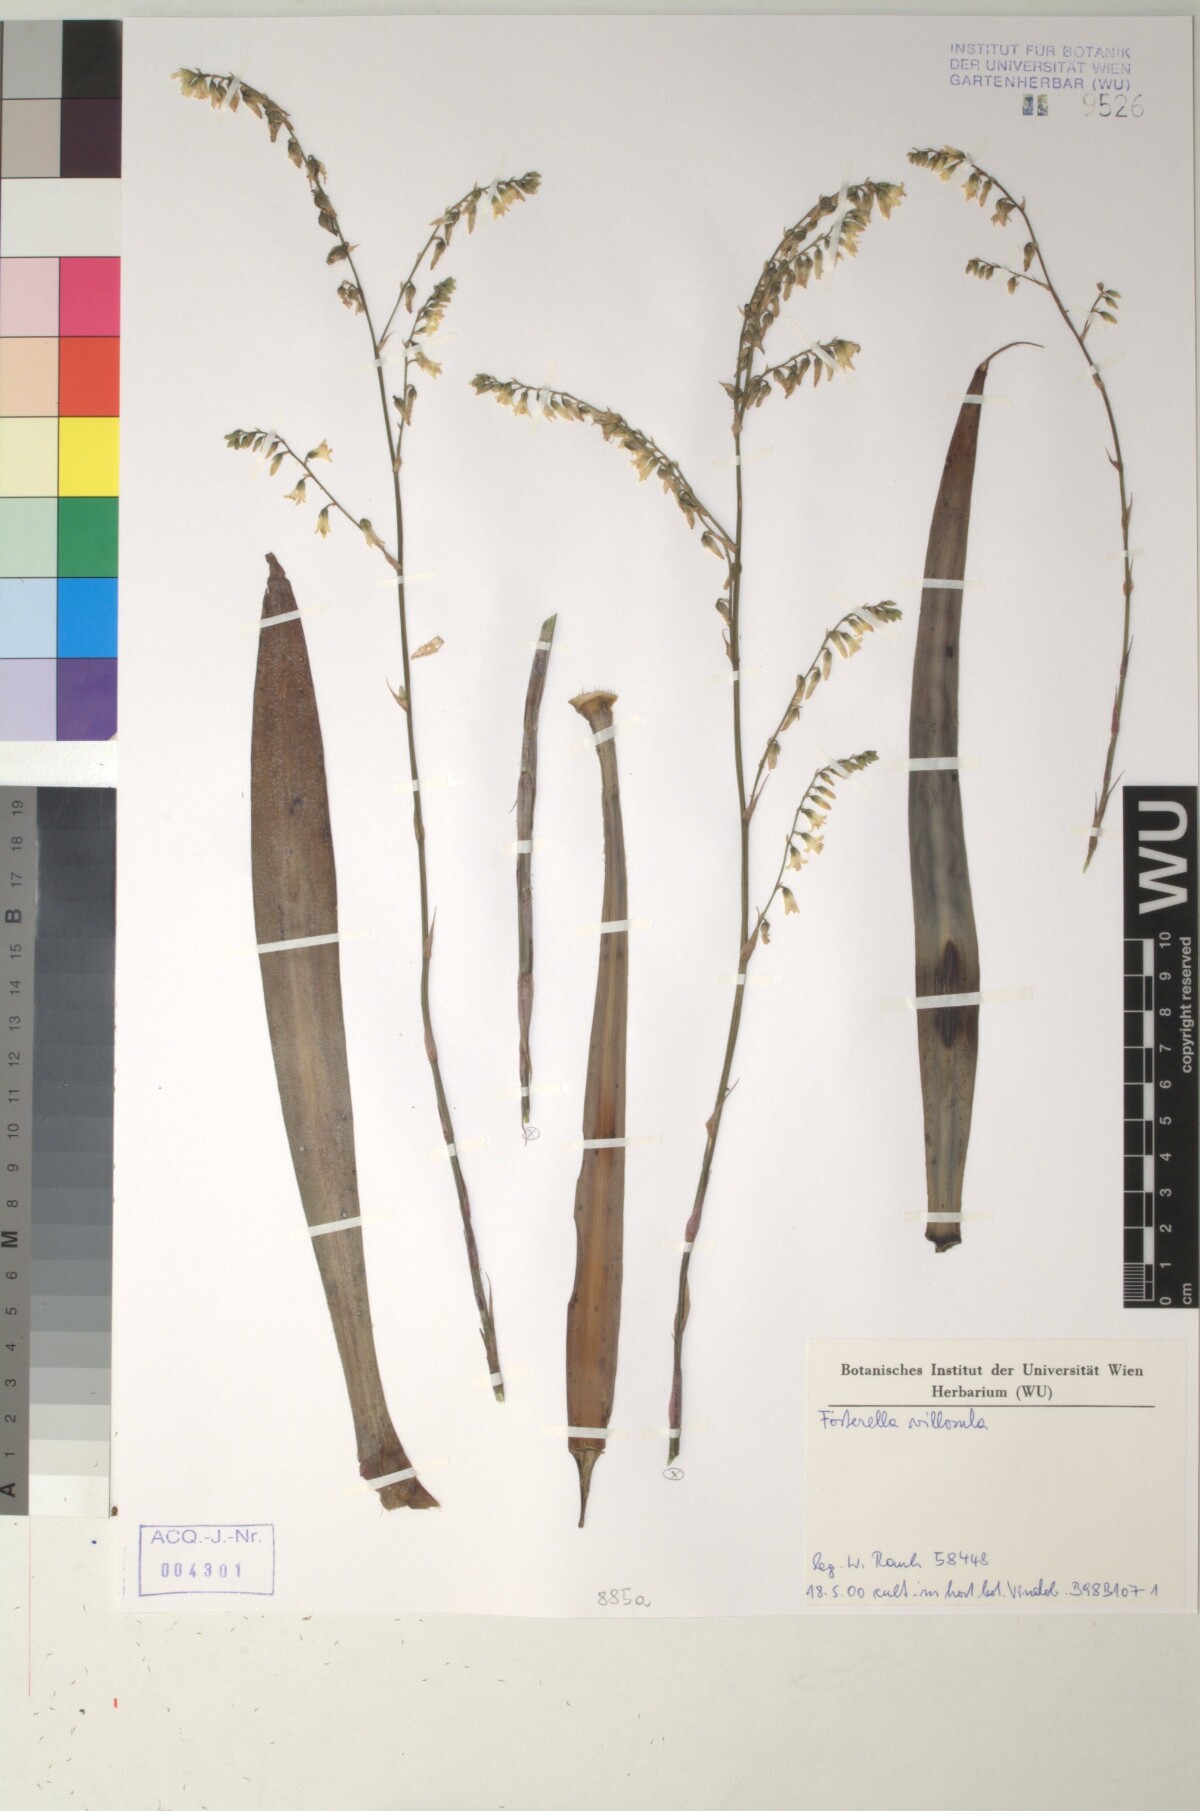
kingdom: Plantae
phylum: Tracheophyta
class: Liliopsida
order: Poales
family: Bromeliaceae
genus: Fosterella
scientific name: Fosterella penduliflora
